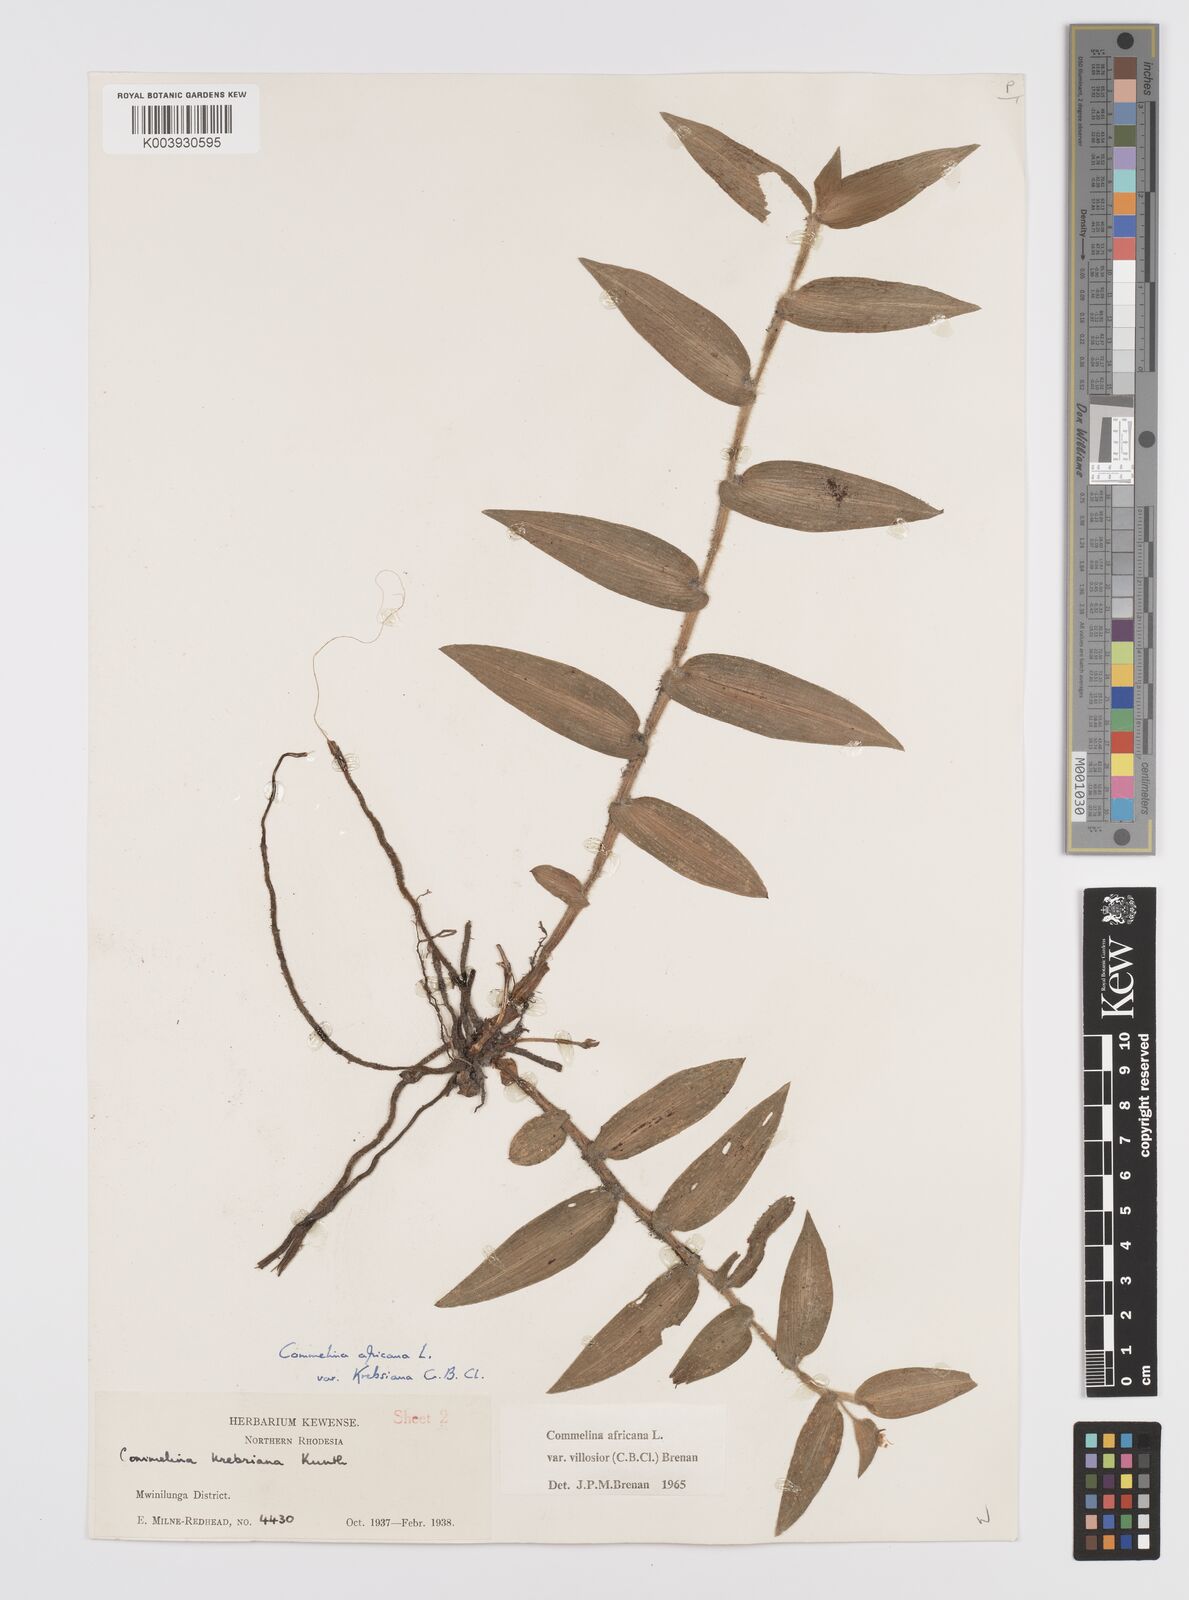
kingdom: Plantae
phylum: Tracheophyta
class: Liliopsida
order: Commelinales
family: Commelinaceae
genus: Commelina
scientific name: Commelina africana
